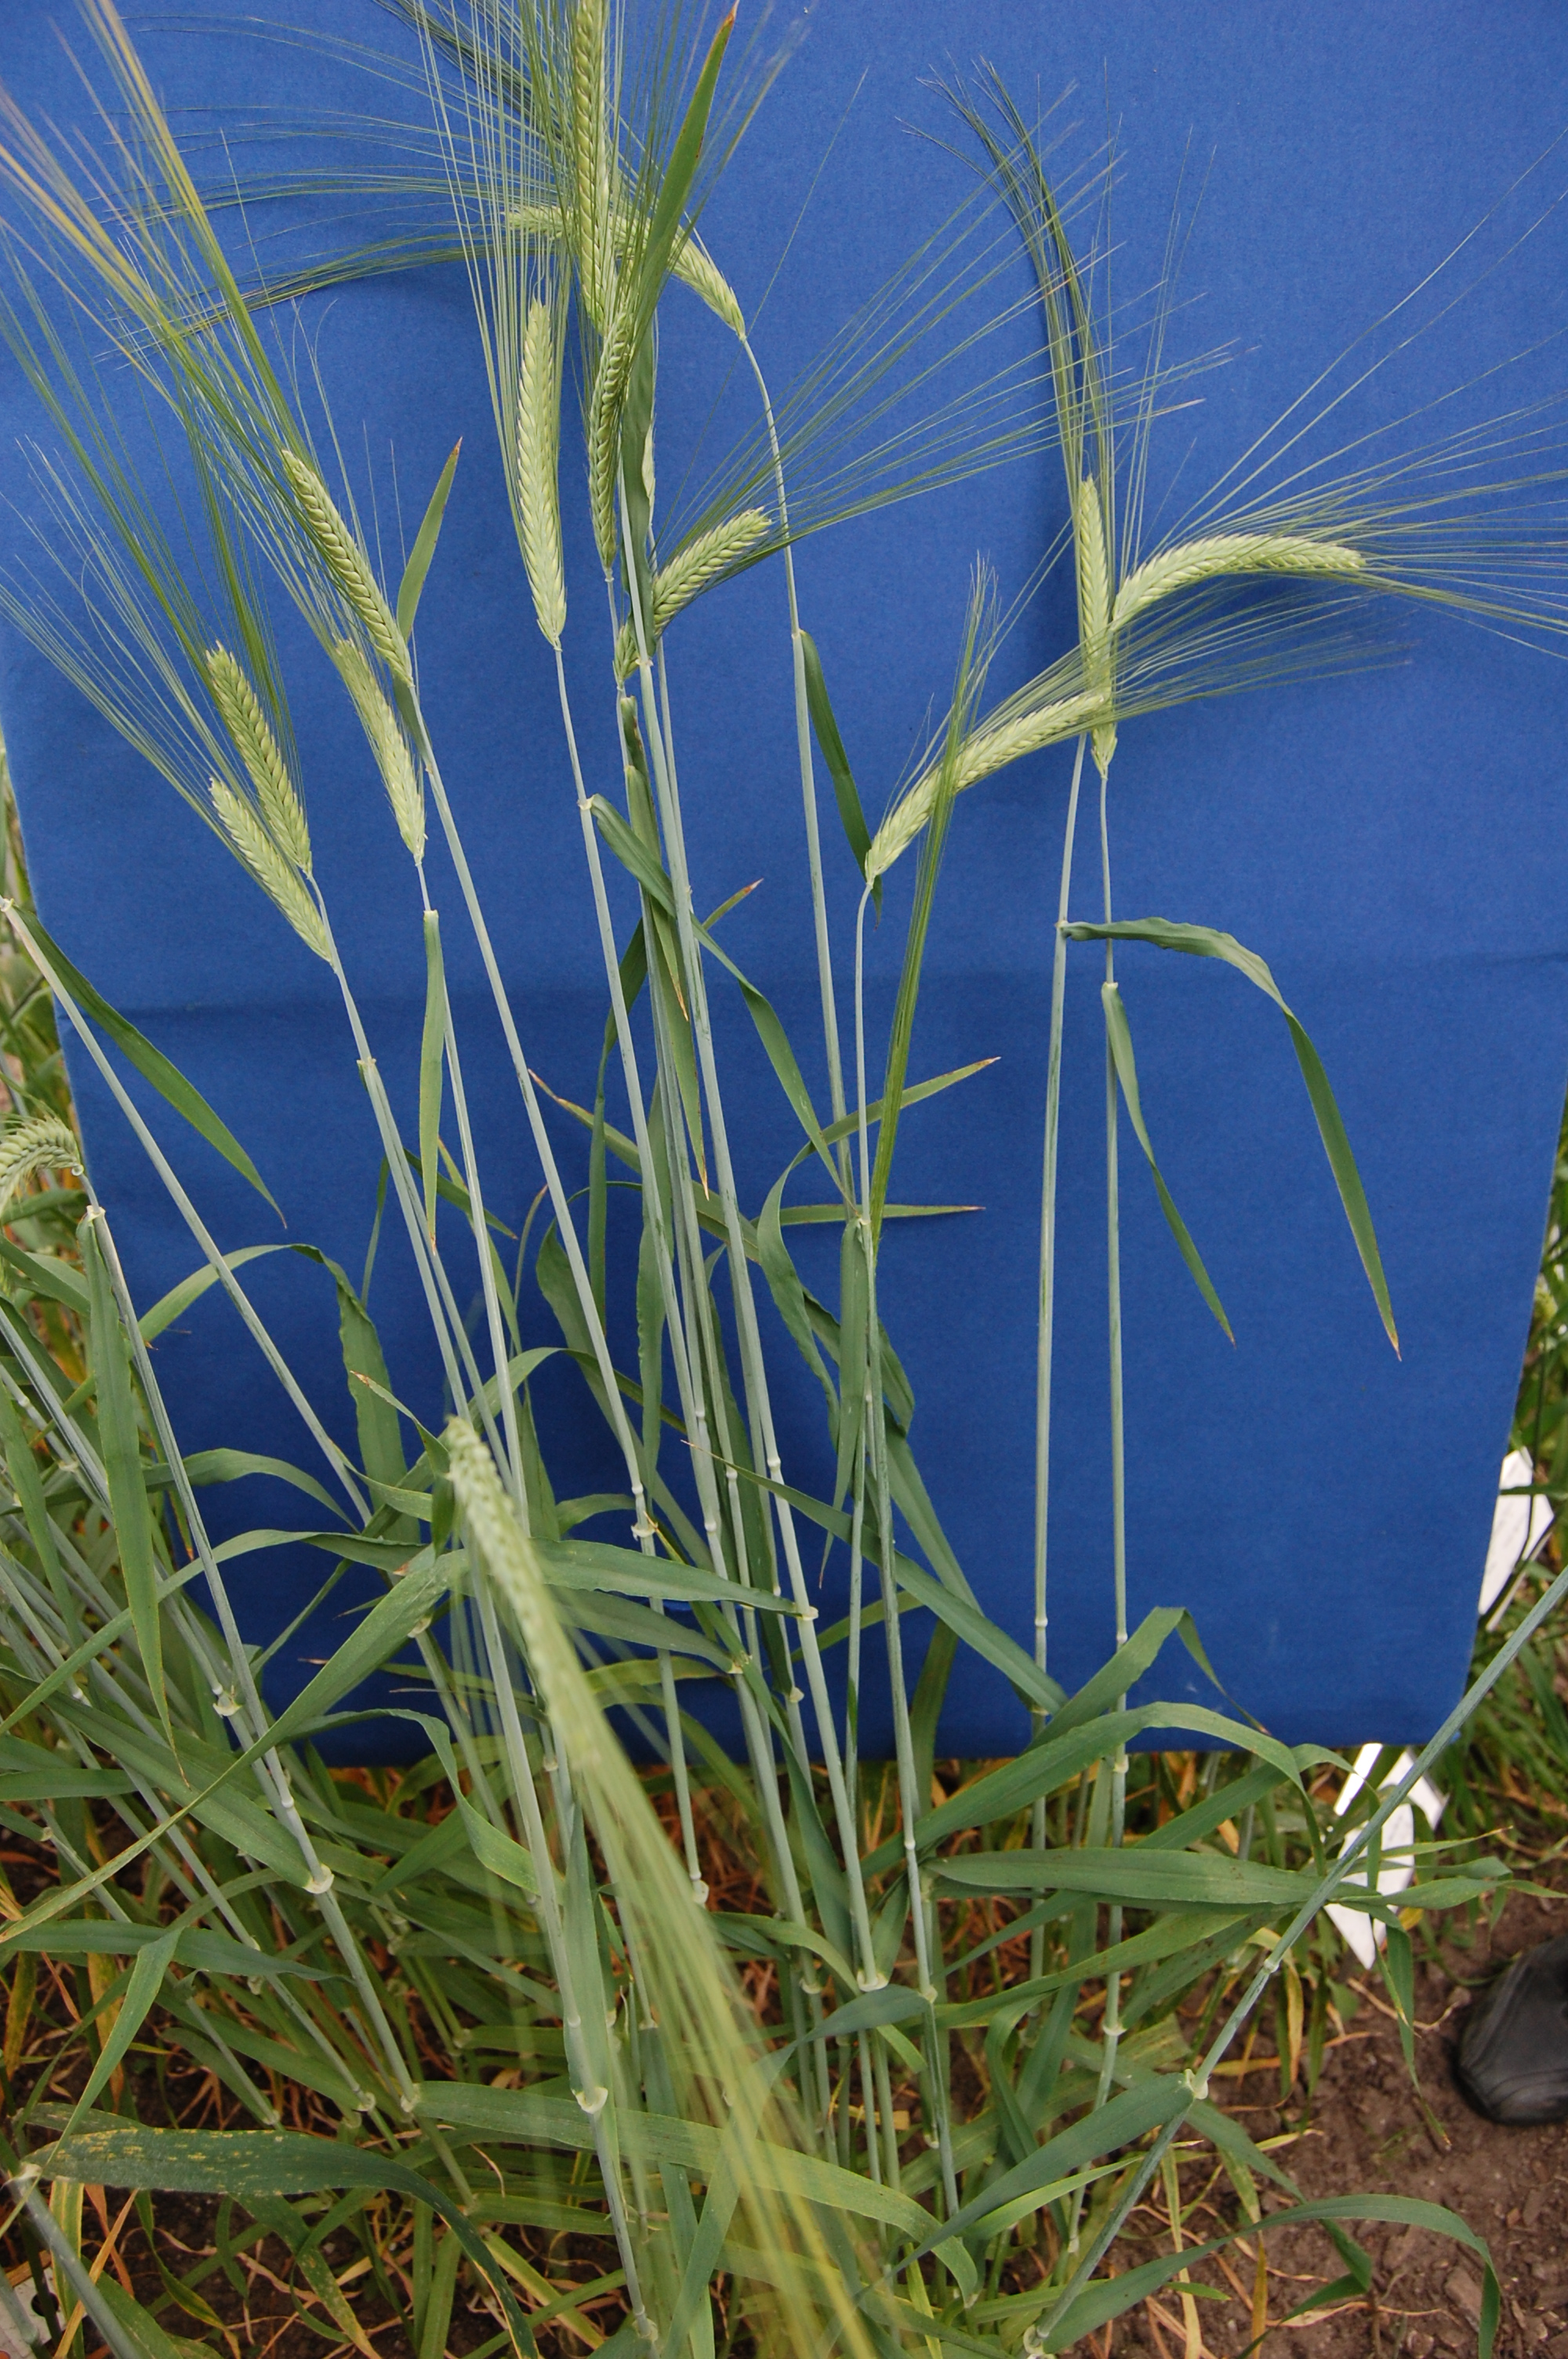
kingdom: Plantae
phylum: Tracheophyta
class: Liliopsida
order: Poales
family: Poaceae
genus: Hordeum
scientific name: Hordeum vulgare
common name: Common barley
